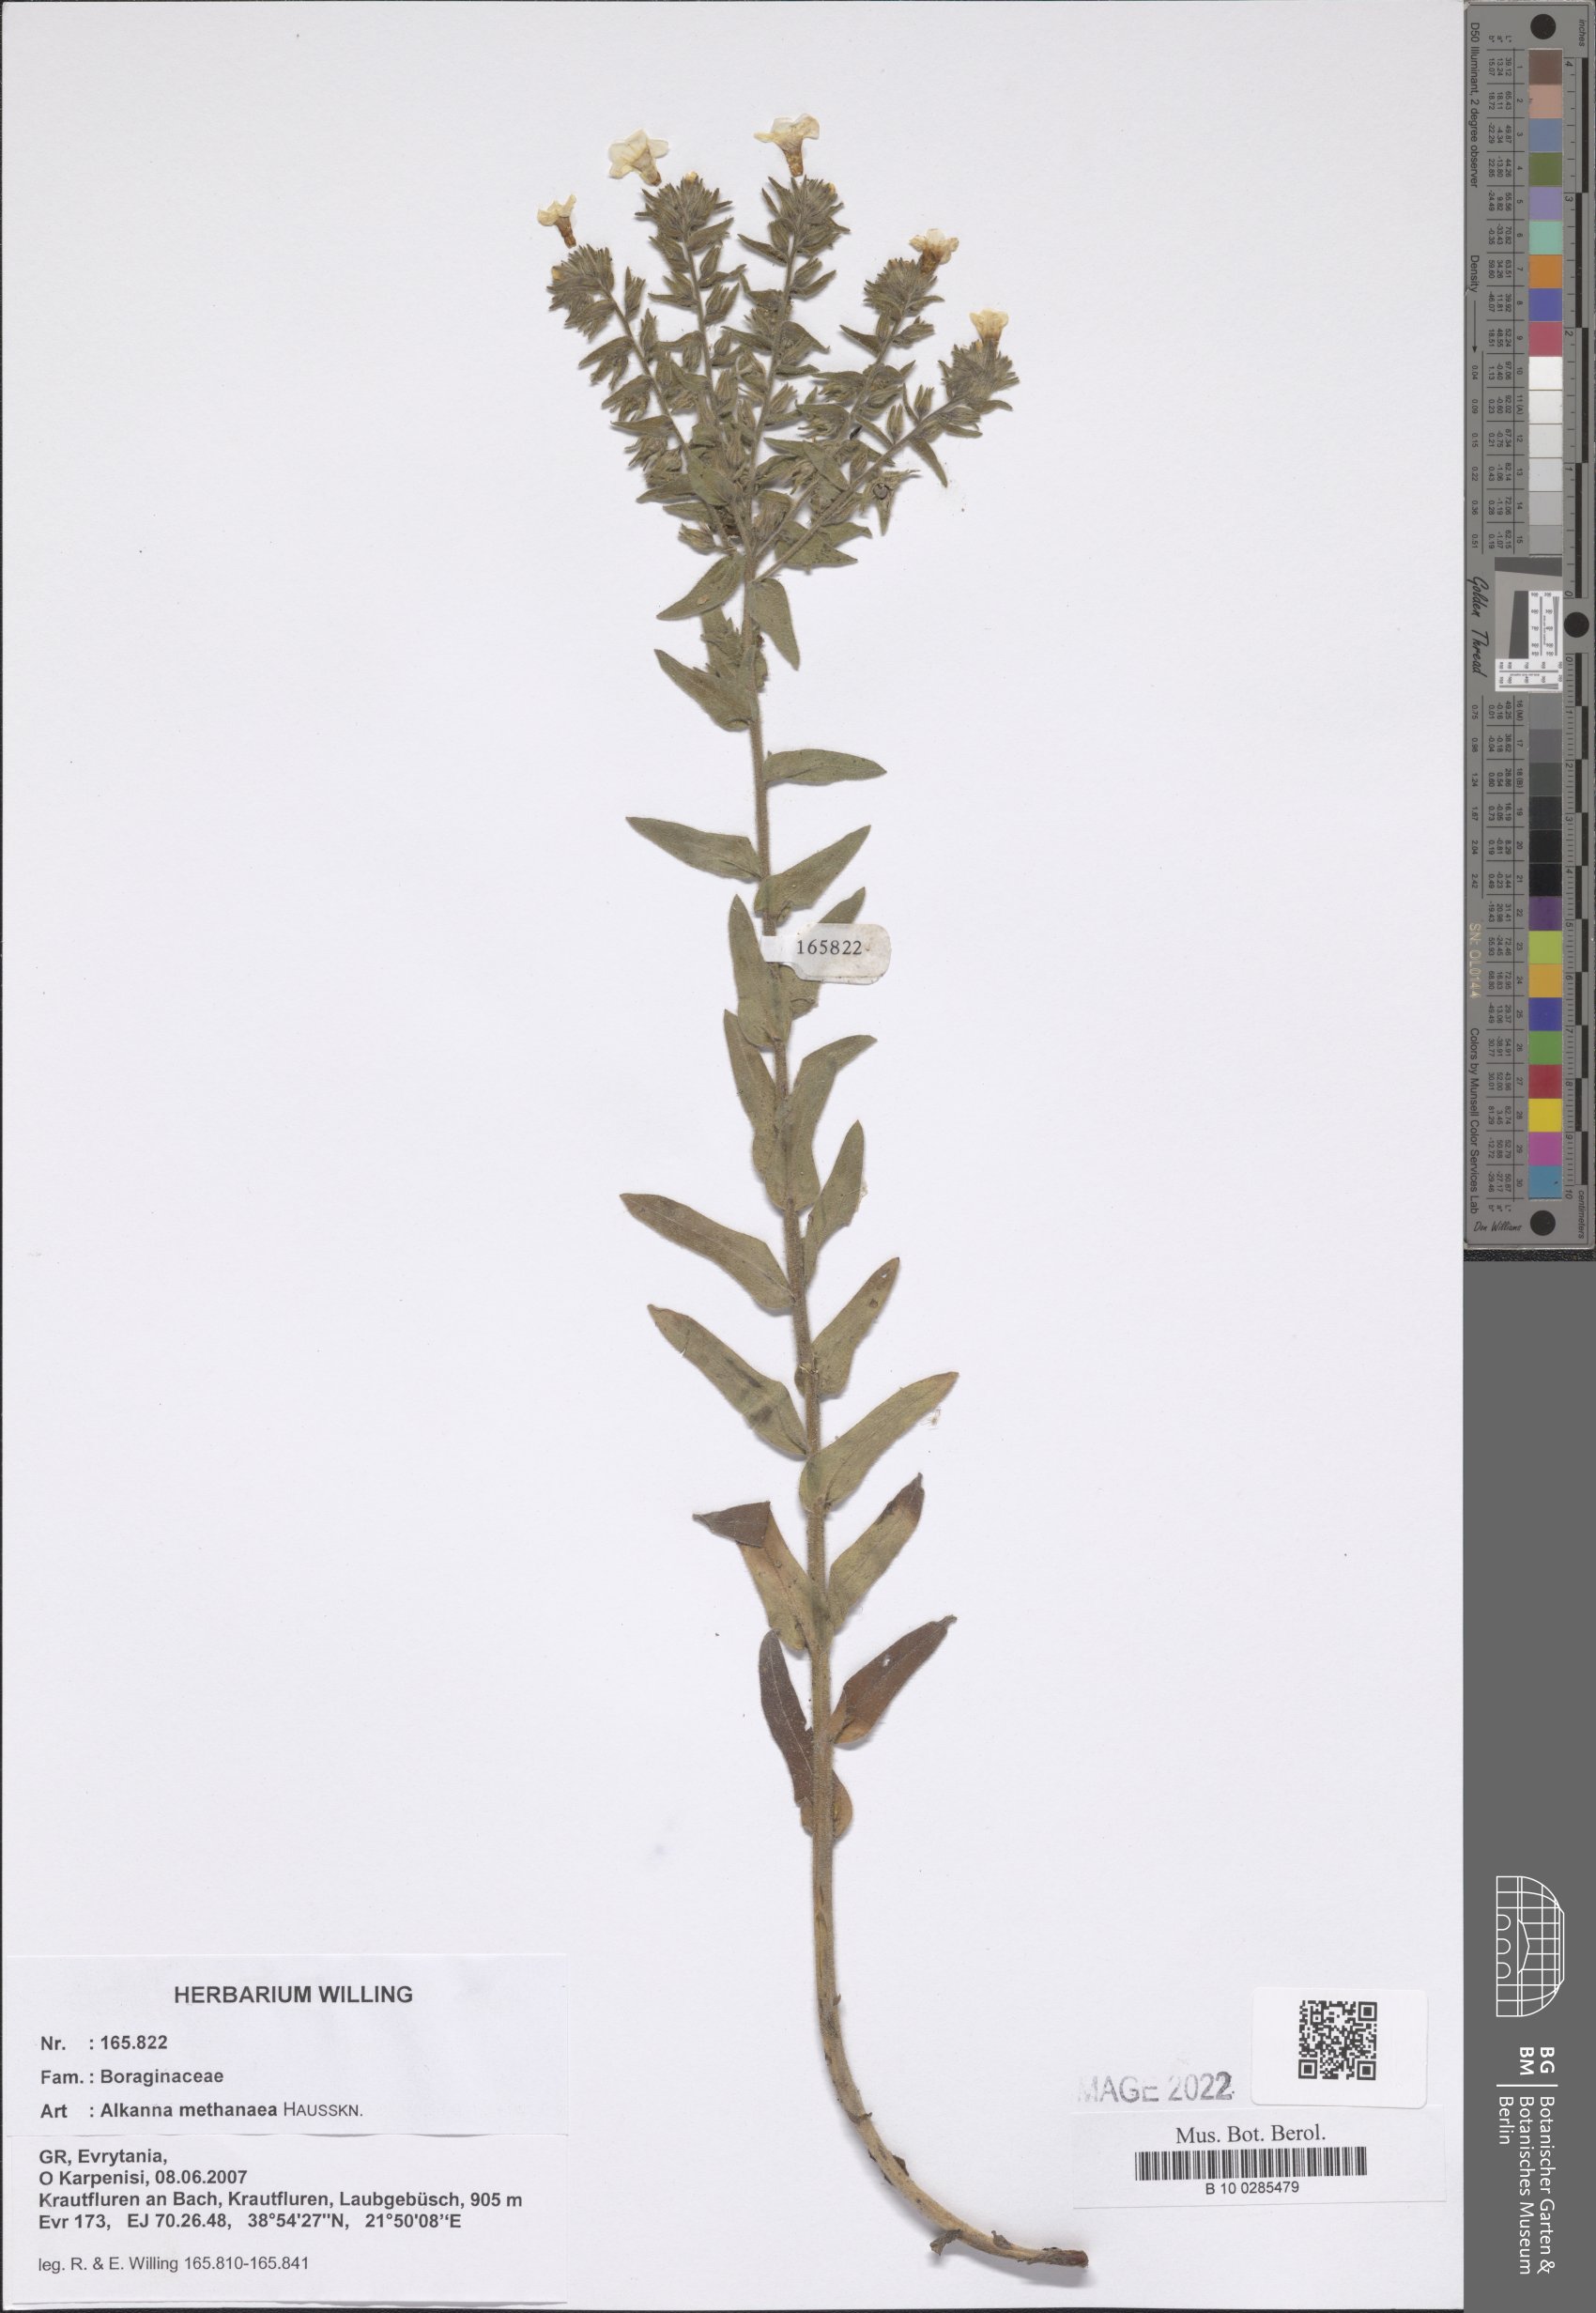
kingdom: Plantae
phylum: Tracheophyta
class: Magnoliopsida
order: Boraginales
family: Boraginaceae
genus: Alkanna
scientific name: Alkanna methanaea
